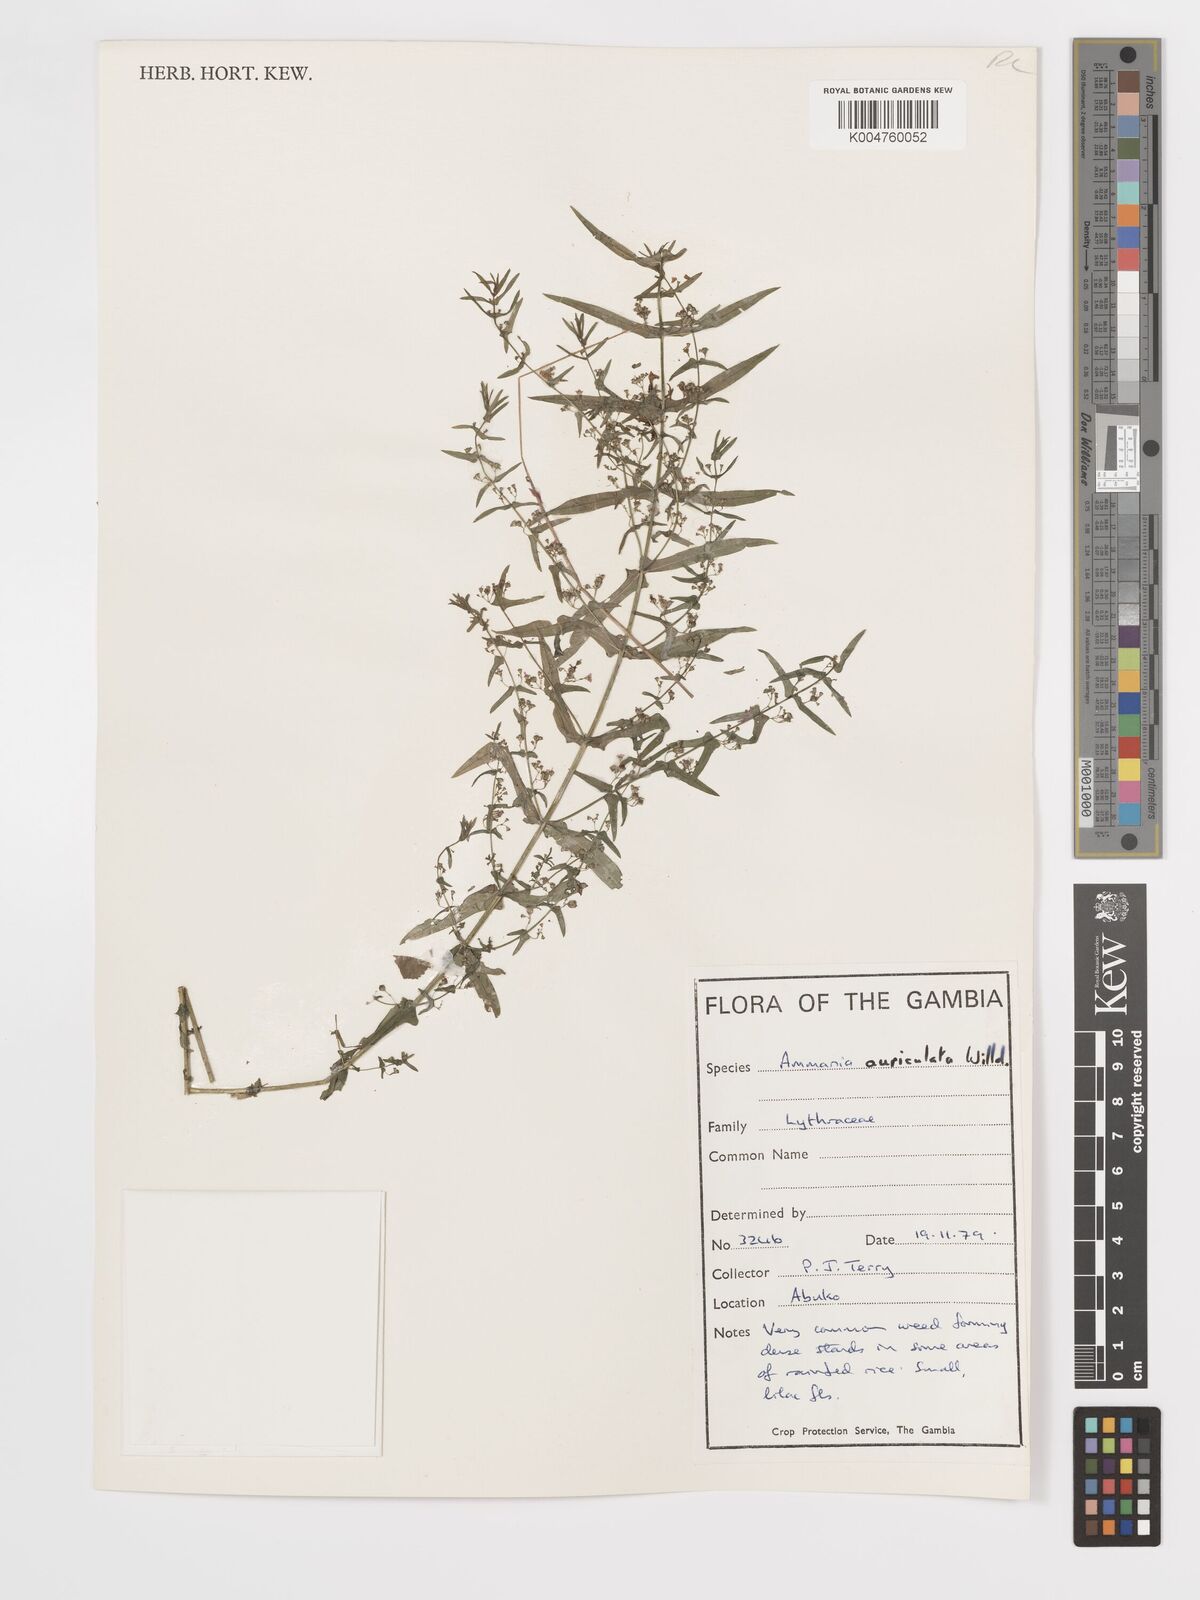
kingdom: Plantae
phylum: Tracheophyta
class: Magnoliopsida
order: Myrtales
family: Lythraceae
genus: Ammannia
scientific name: Ammannia auriculata
